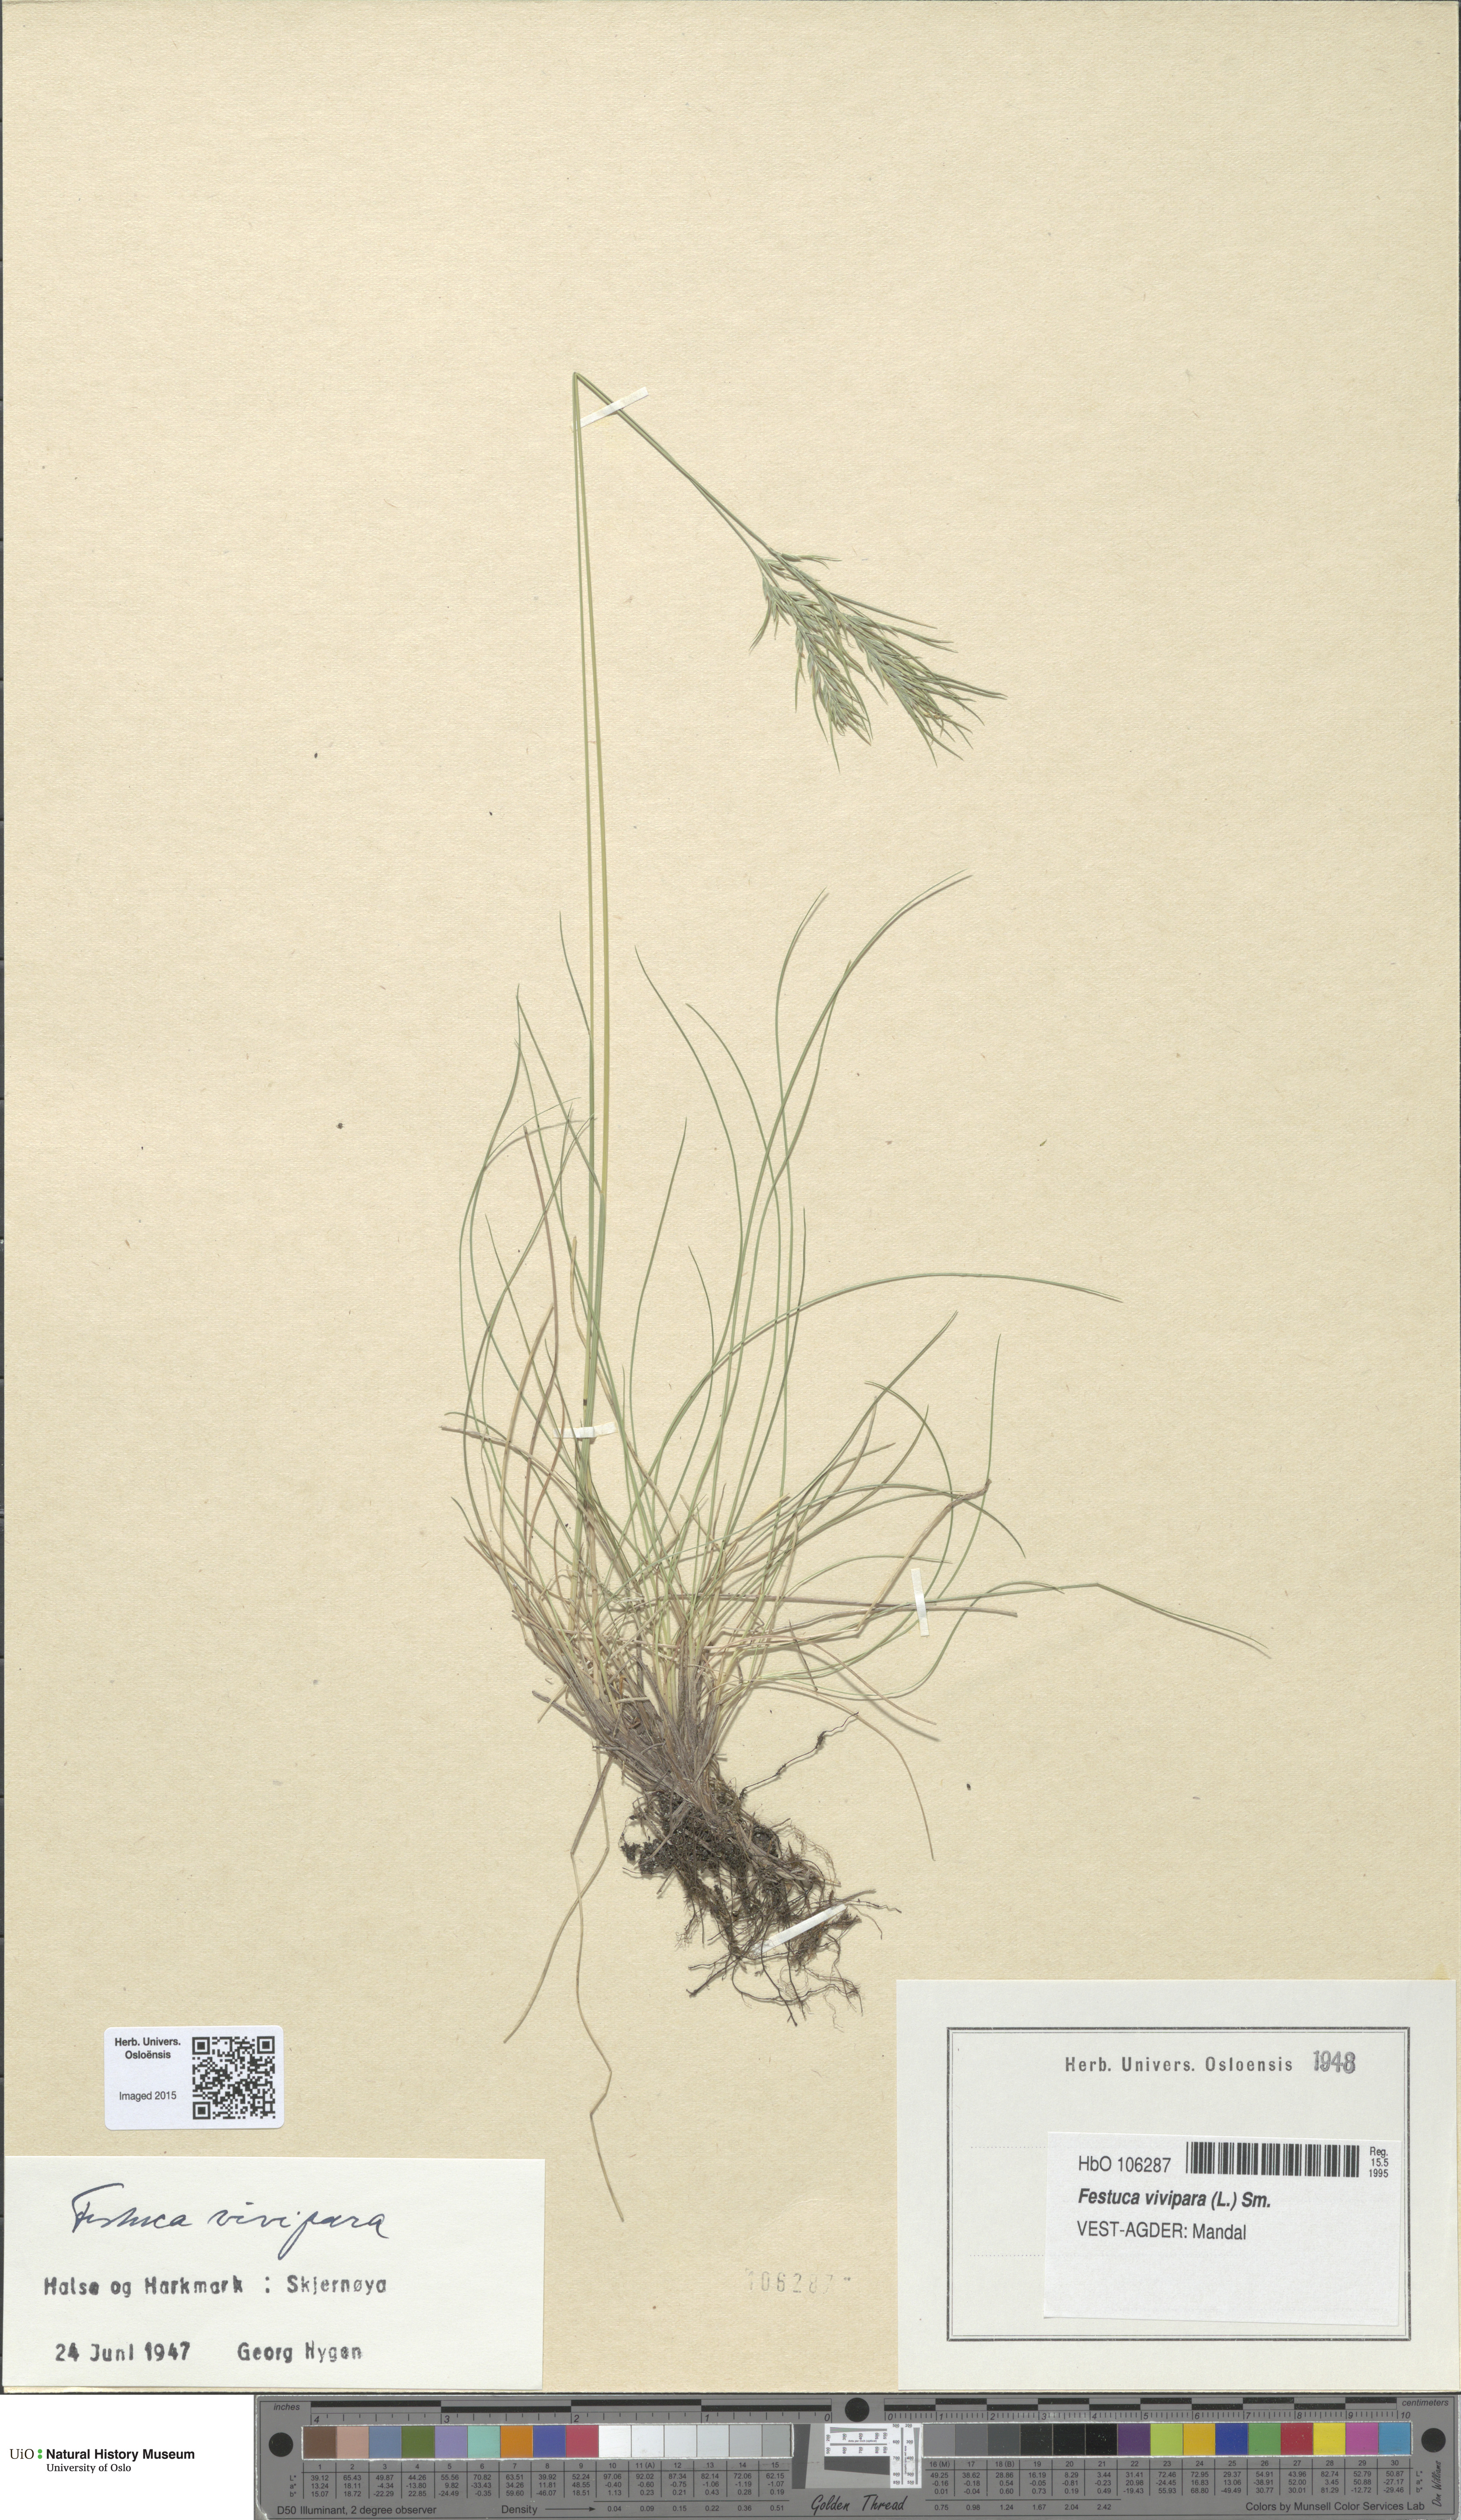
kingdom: Plantae
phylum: Tracheophyta
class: Liliopsida
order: Poales
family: Poaceae
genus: Festuca
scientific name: Festuca vivipara
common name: Viviparous sheep's-fescue
